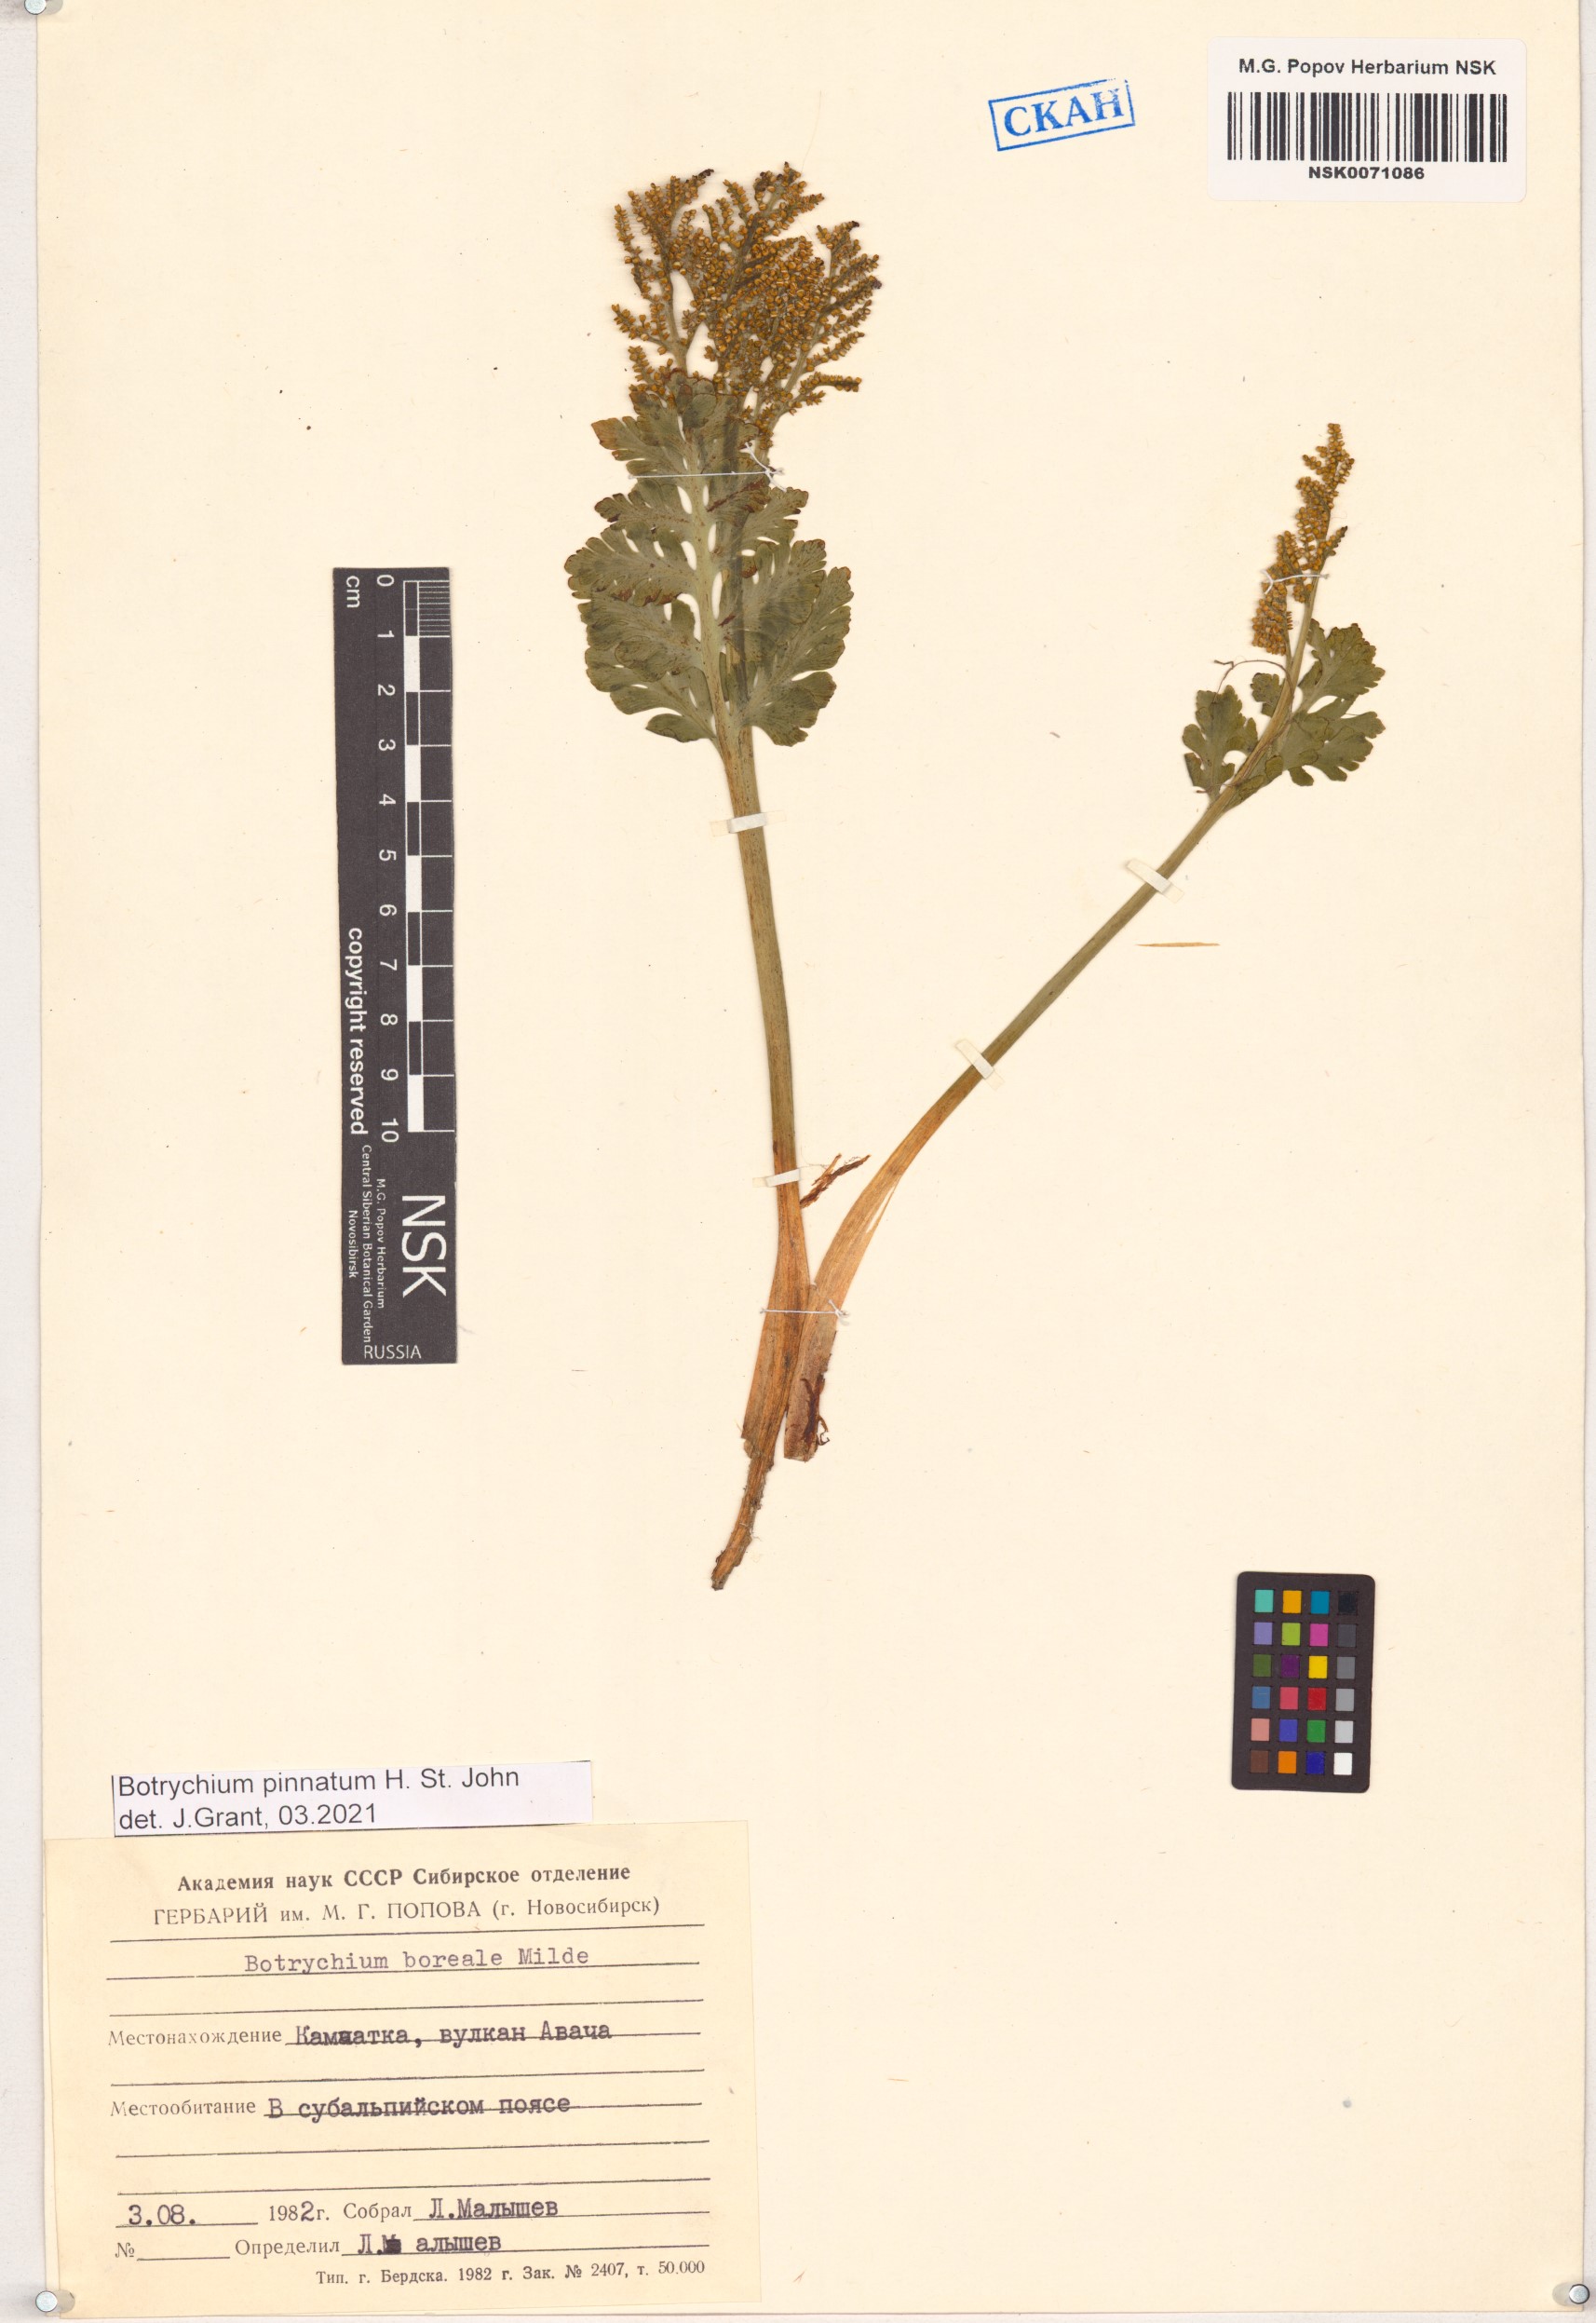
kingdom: Plantae
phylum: Tracheophyta
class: Polypodiopsida
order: Ophioglossales
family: Ophioglossaceae
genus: Botrychium
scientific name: Botrychium pinnatum
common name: Northwestern moonwort
